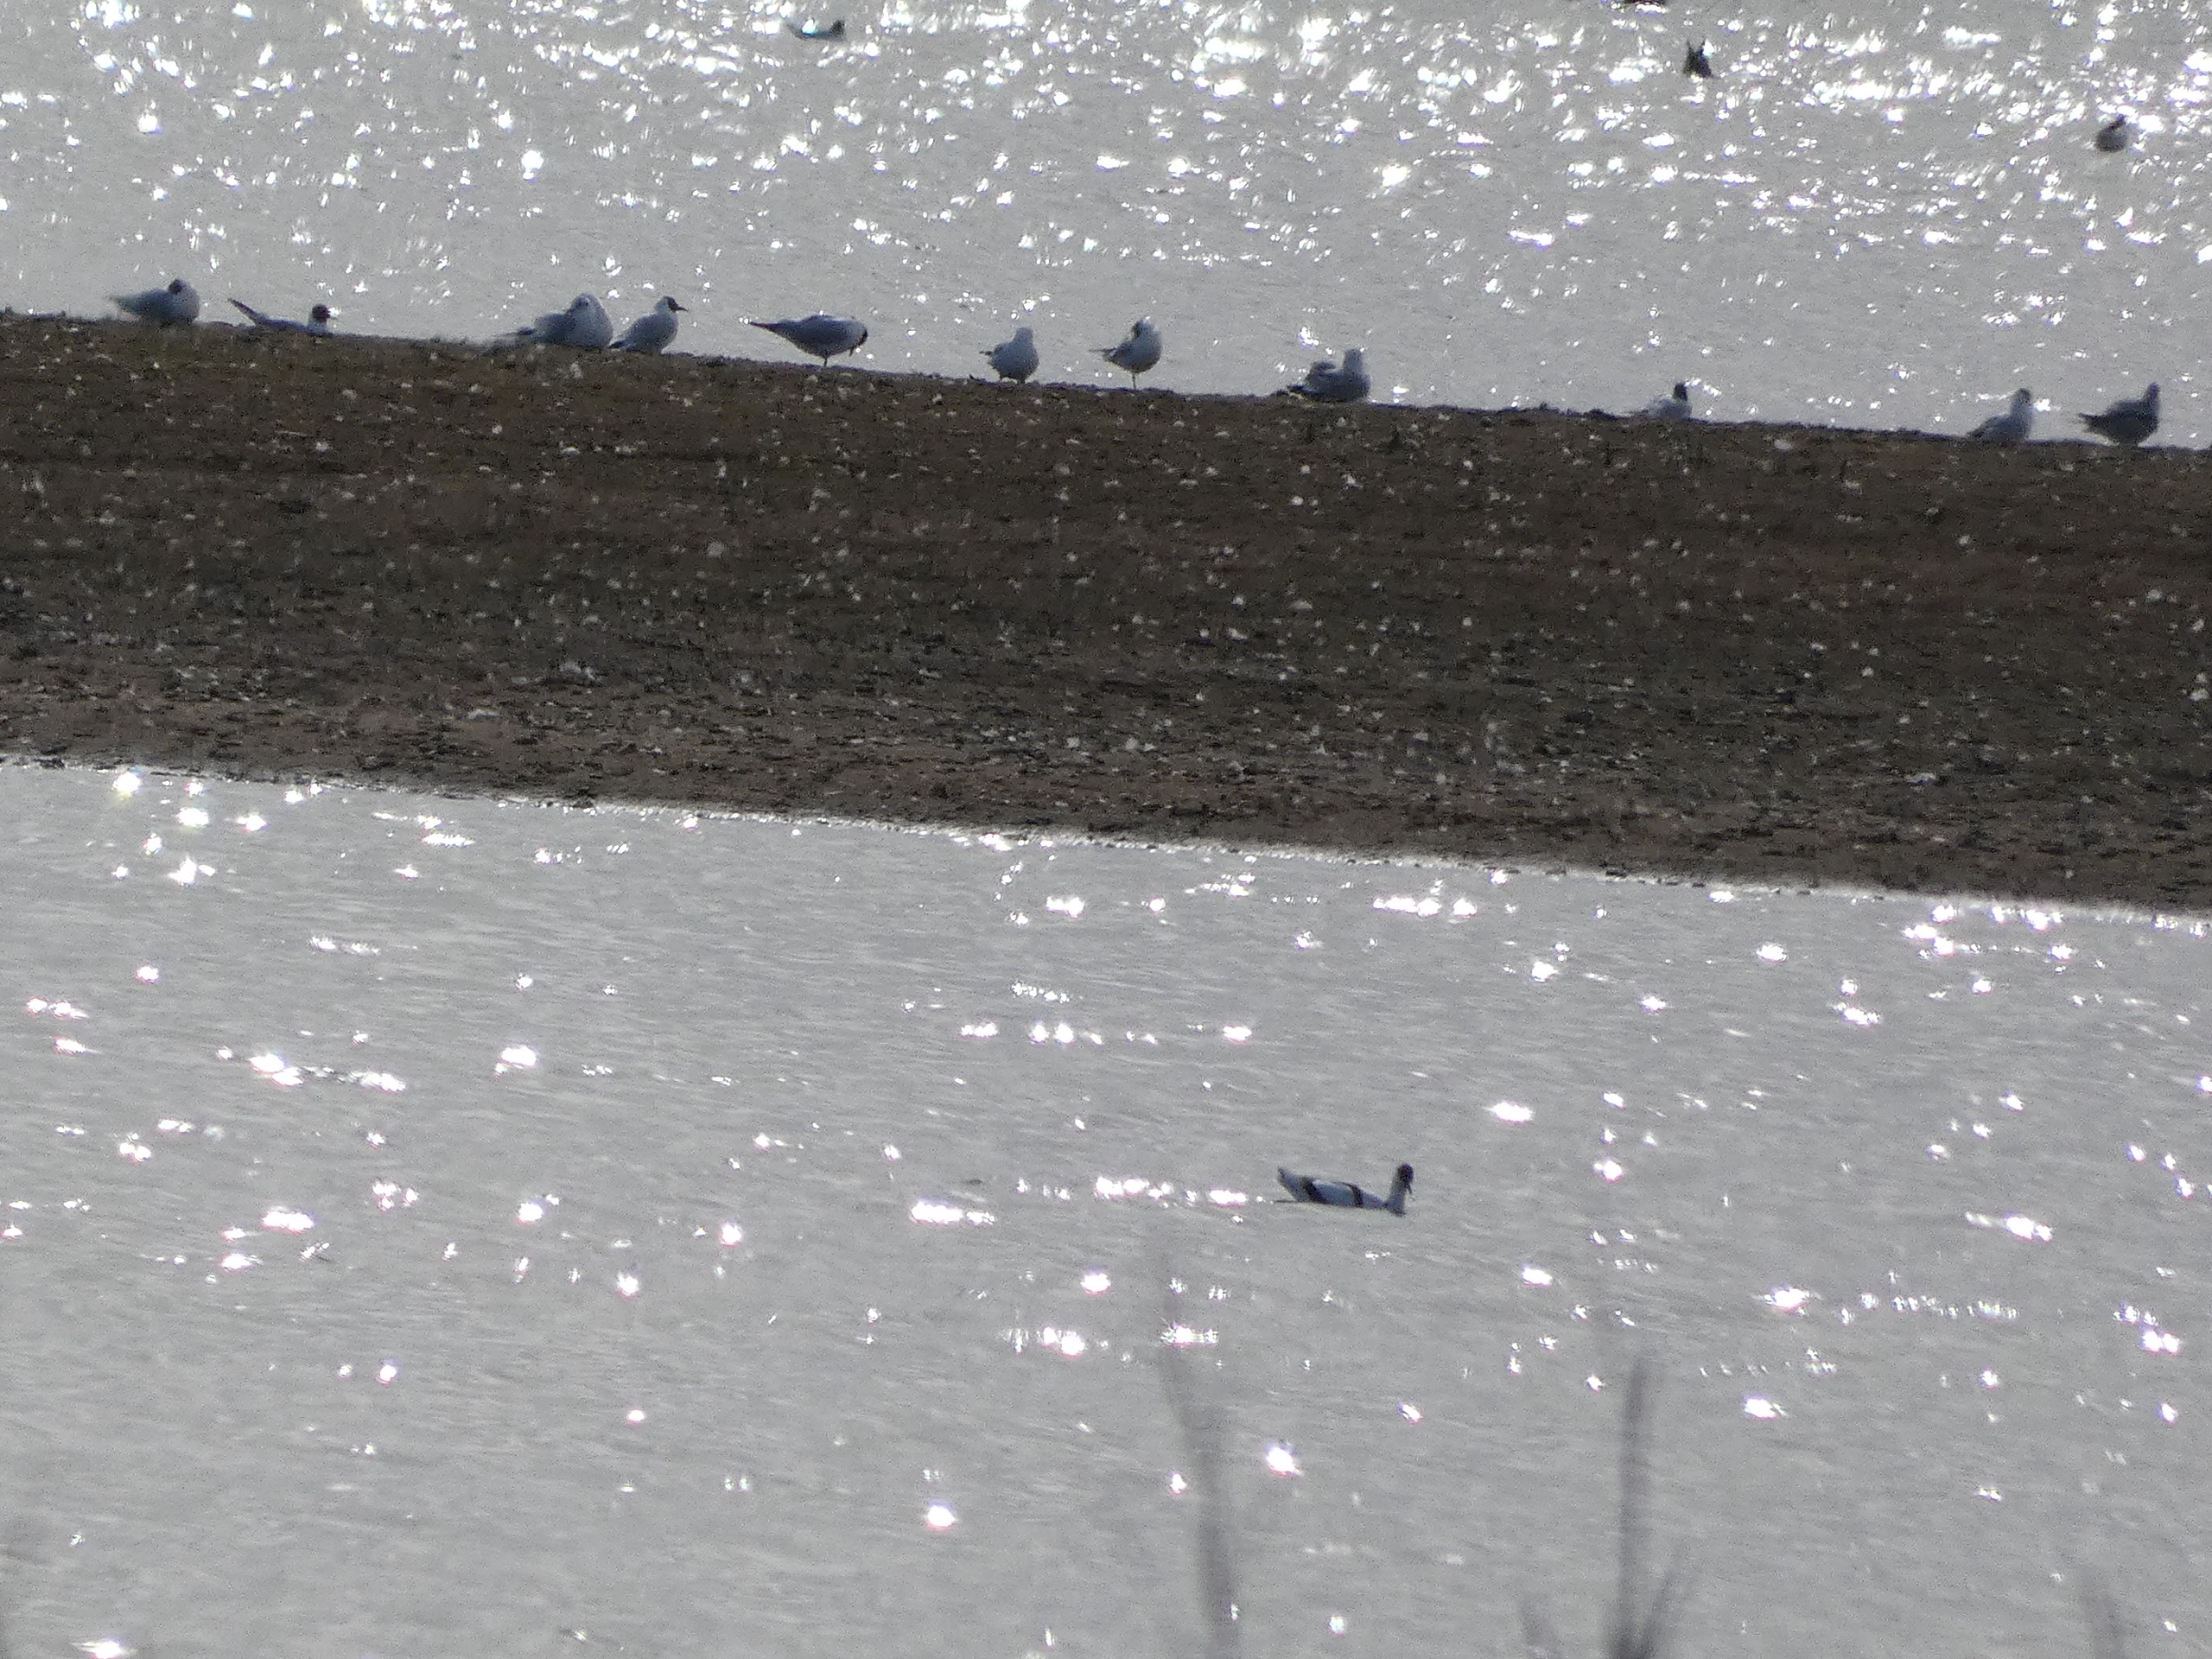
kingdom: Animalia
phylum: Chordata
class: Aves
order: Charadriiformes
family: Laridae
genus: Chroicocephalus
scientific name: Chroicocephalus ridibundus
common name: Hættemåge
